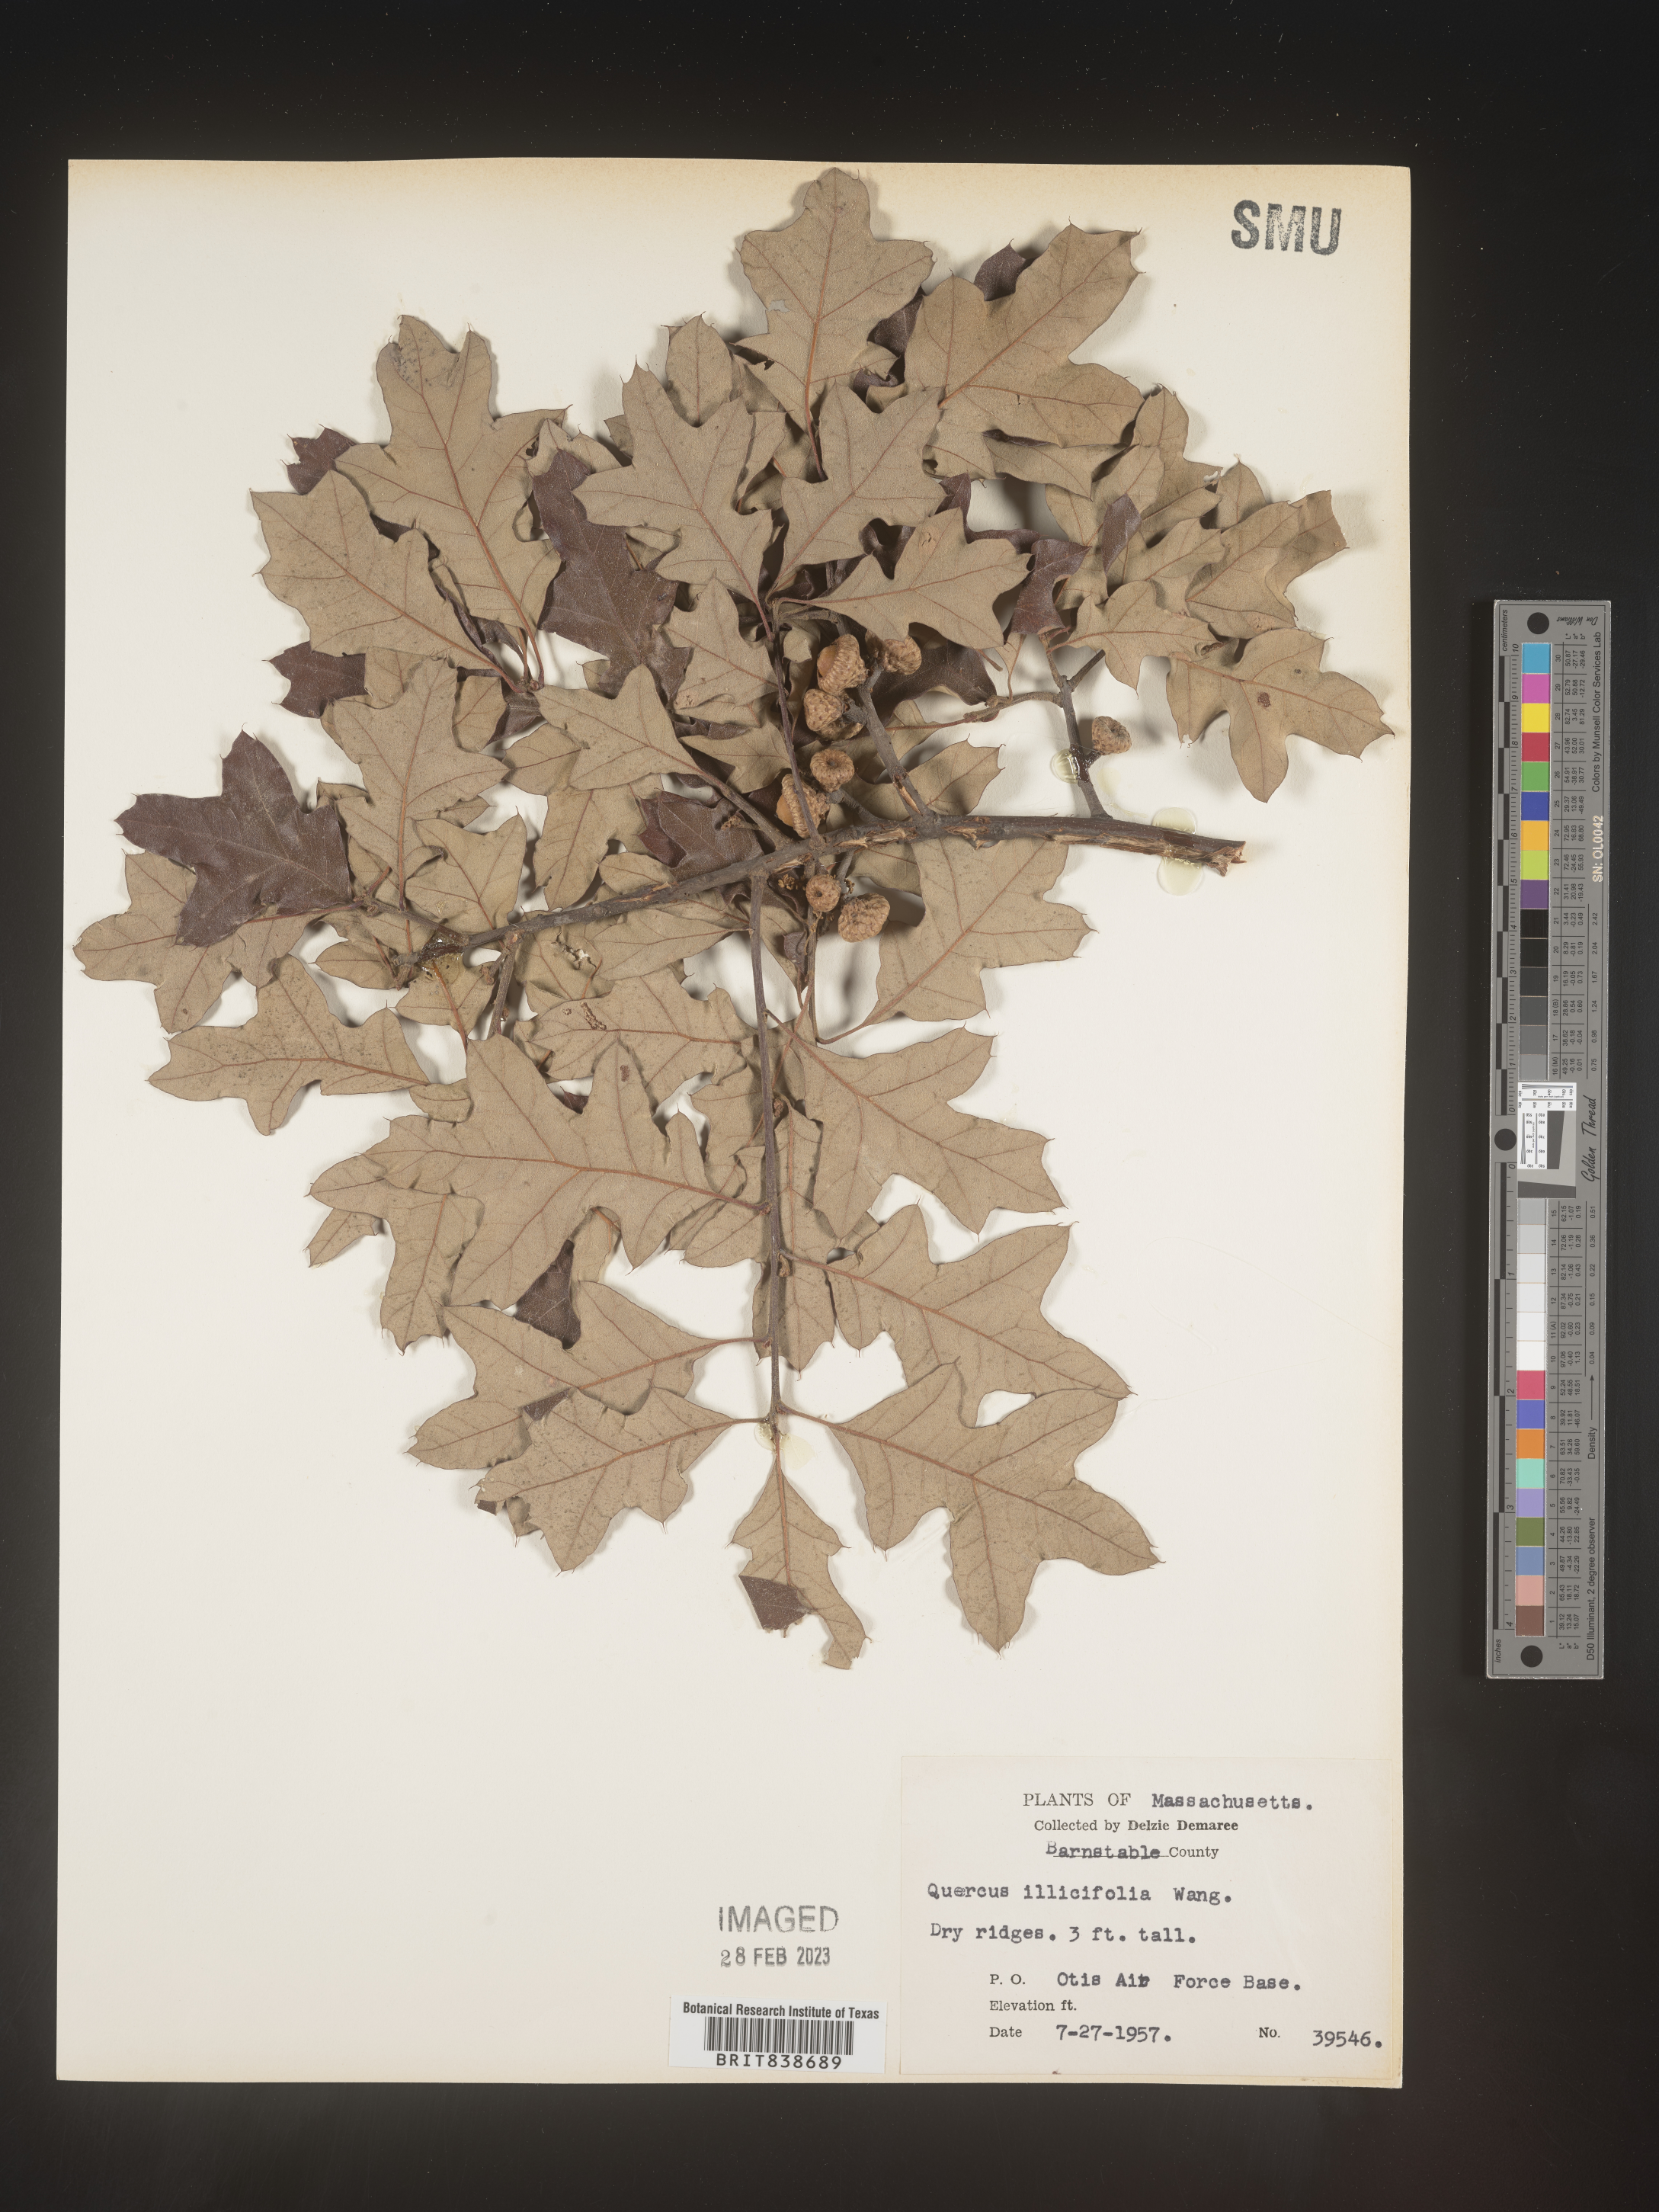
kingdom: Plantae
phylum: Tracheophyta
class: Magnoliopsida
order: Fagales
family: Fagaceae
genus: Quercus
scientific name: Quercus ilicifolia
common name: Bear oak
